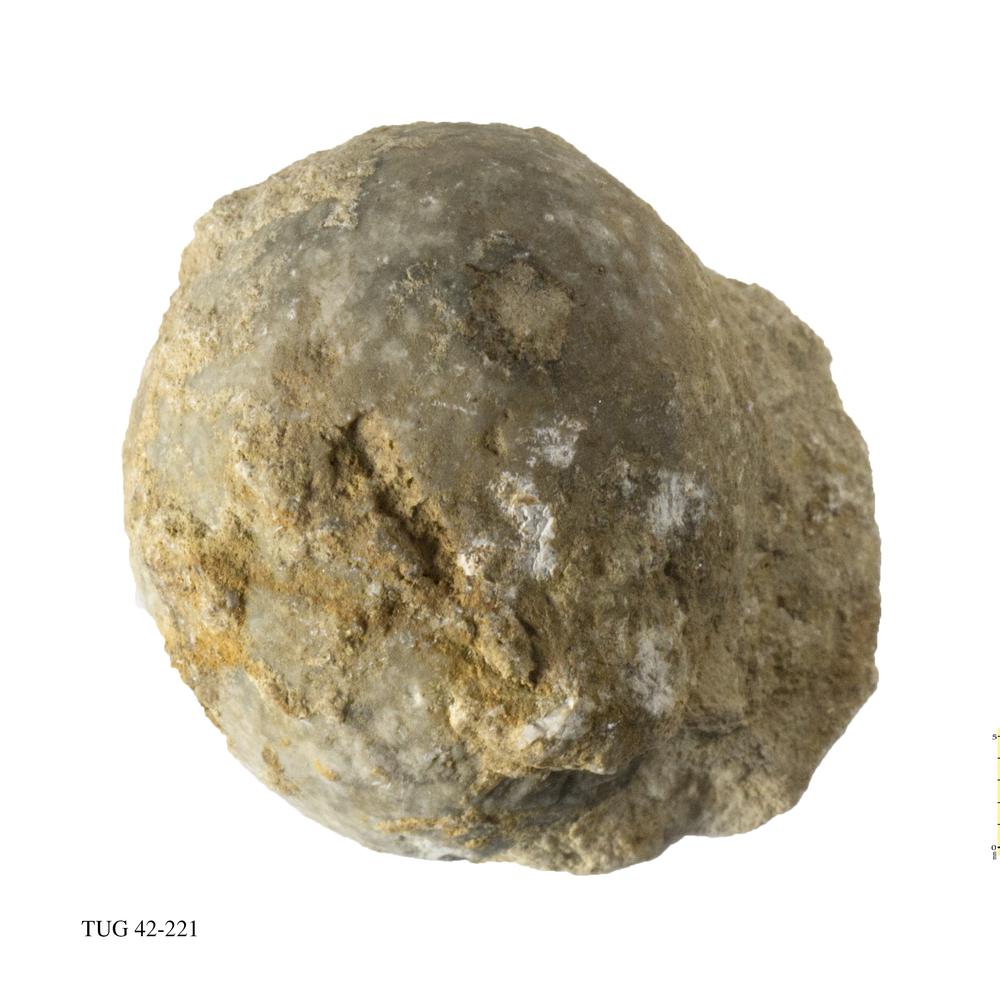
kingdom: Animalia
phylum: Echinodermata
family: Echinosphaeritidae
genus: Echinosphaerites
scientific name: Echinosphaerites Echinus aurantium
